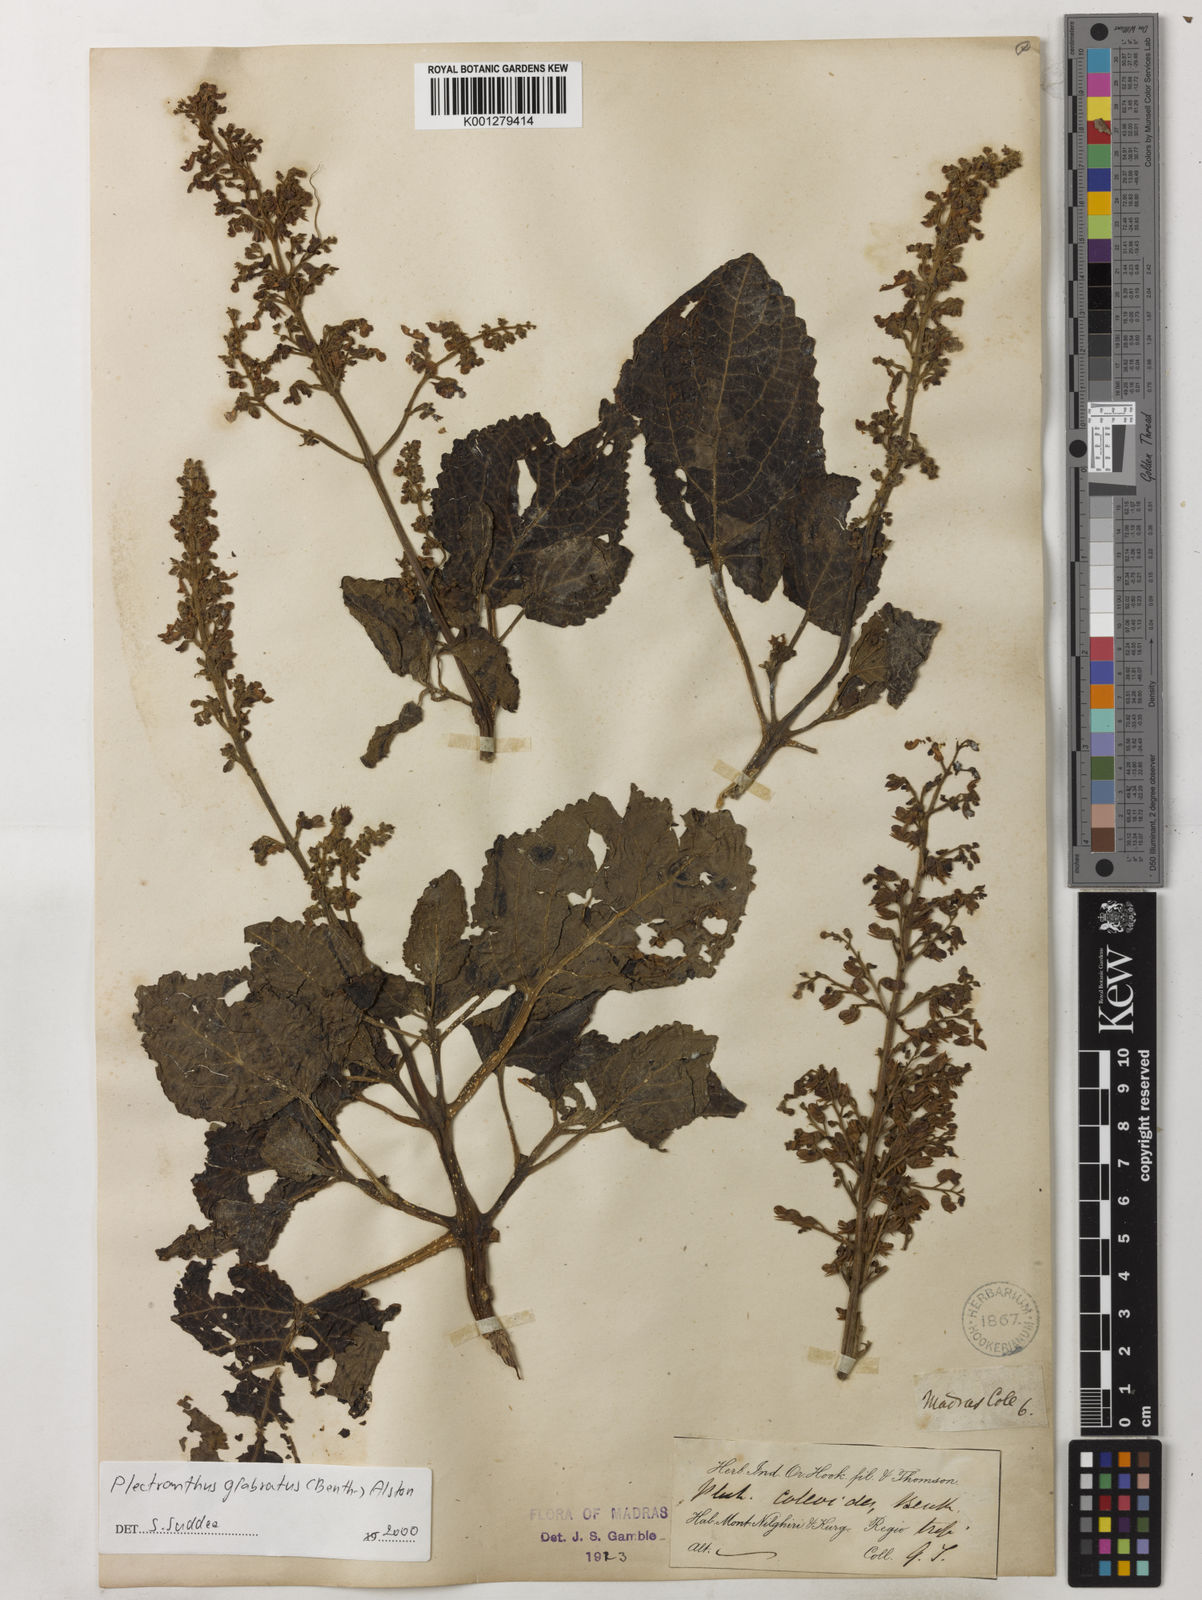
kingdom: Plantae
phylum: Tracheophyta
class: Magnoliopsida
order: Lamiales
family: Lamiaceae
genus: Coleus
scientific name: Coleus paniculatus
